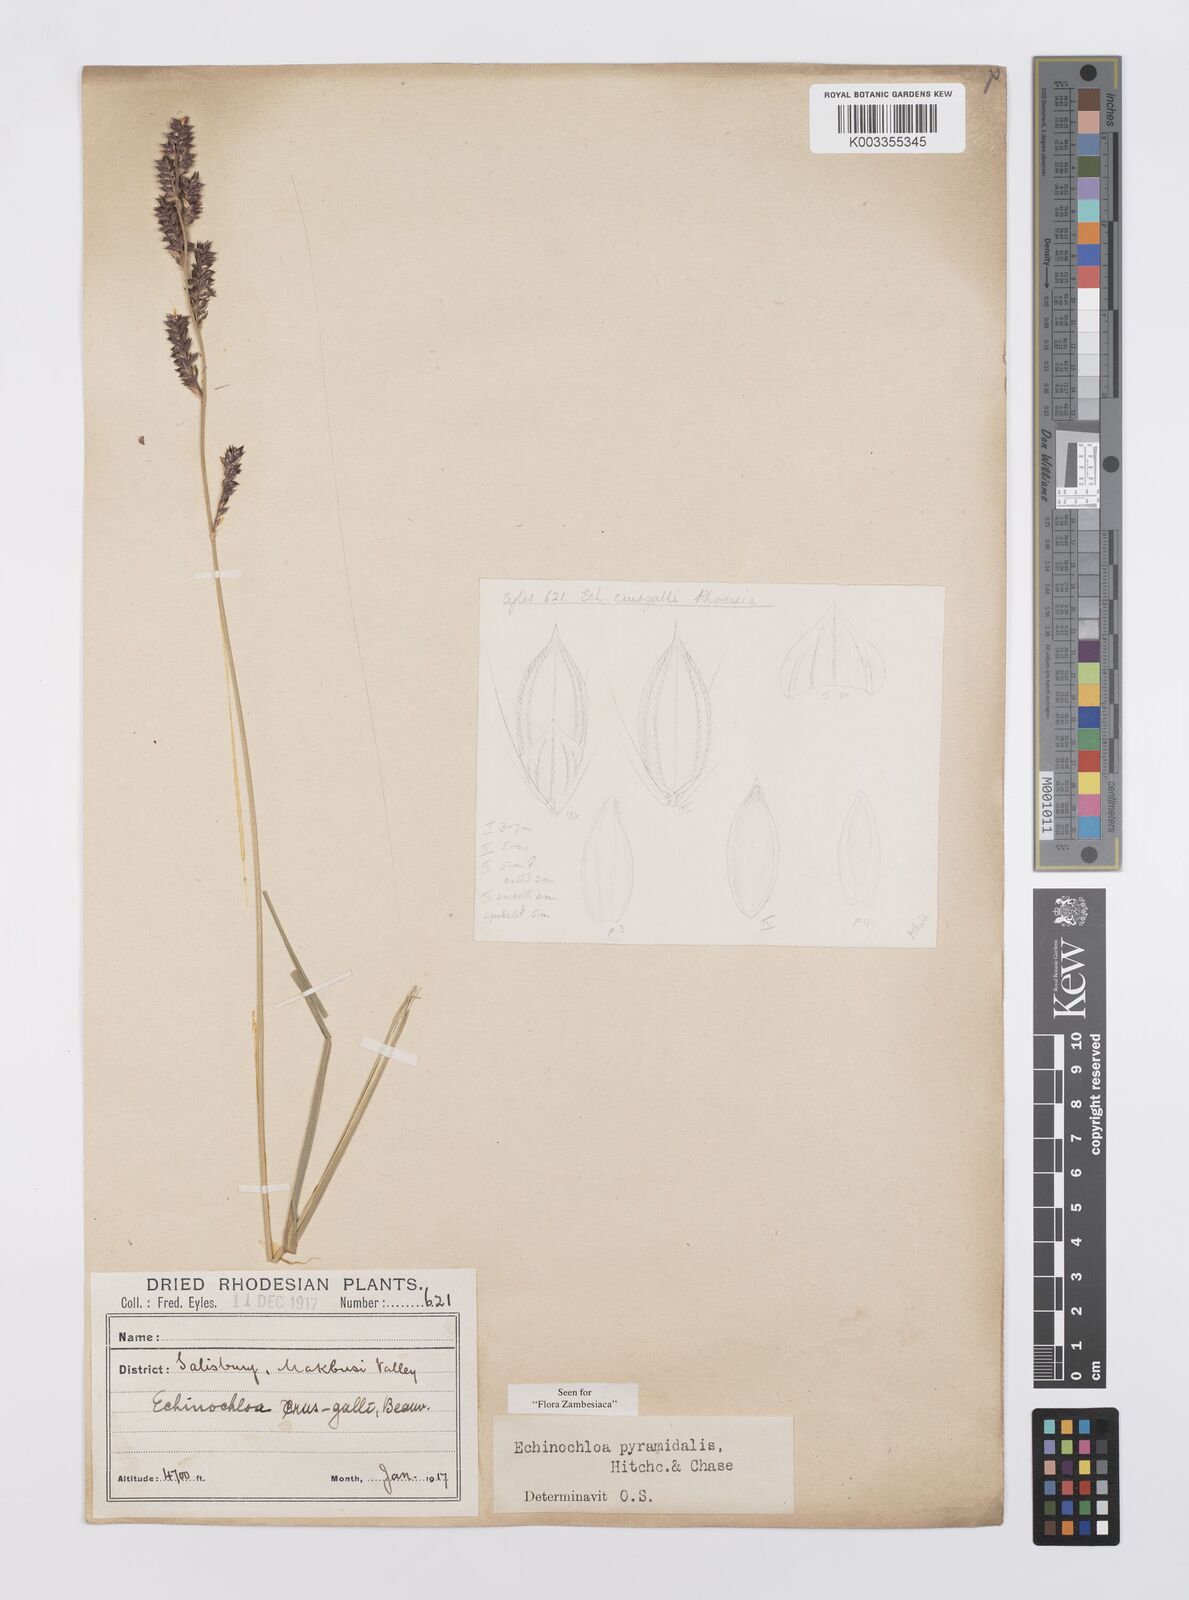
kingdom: Plantae
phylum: Tracheophyta
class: Liliopsida
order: Poales
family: Poaceae
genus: Echinochloa
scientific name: Echinochloa pyramidalis
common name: Antelope grass
